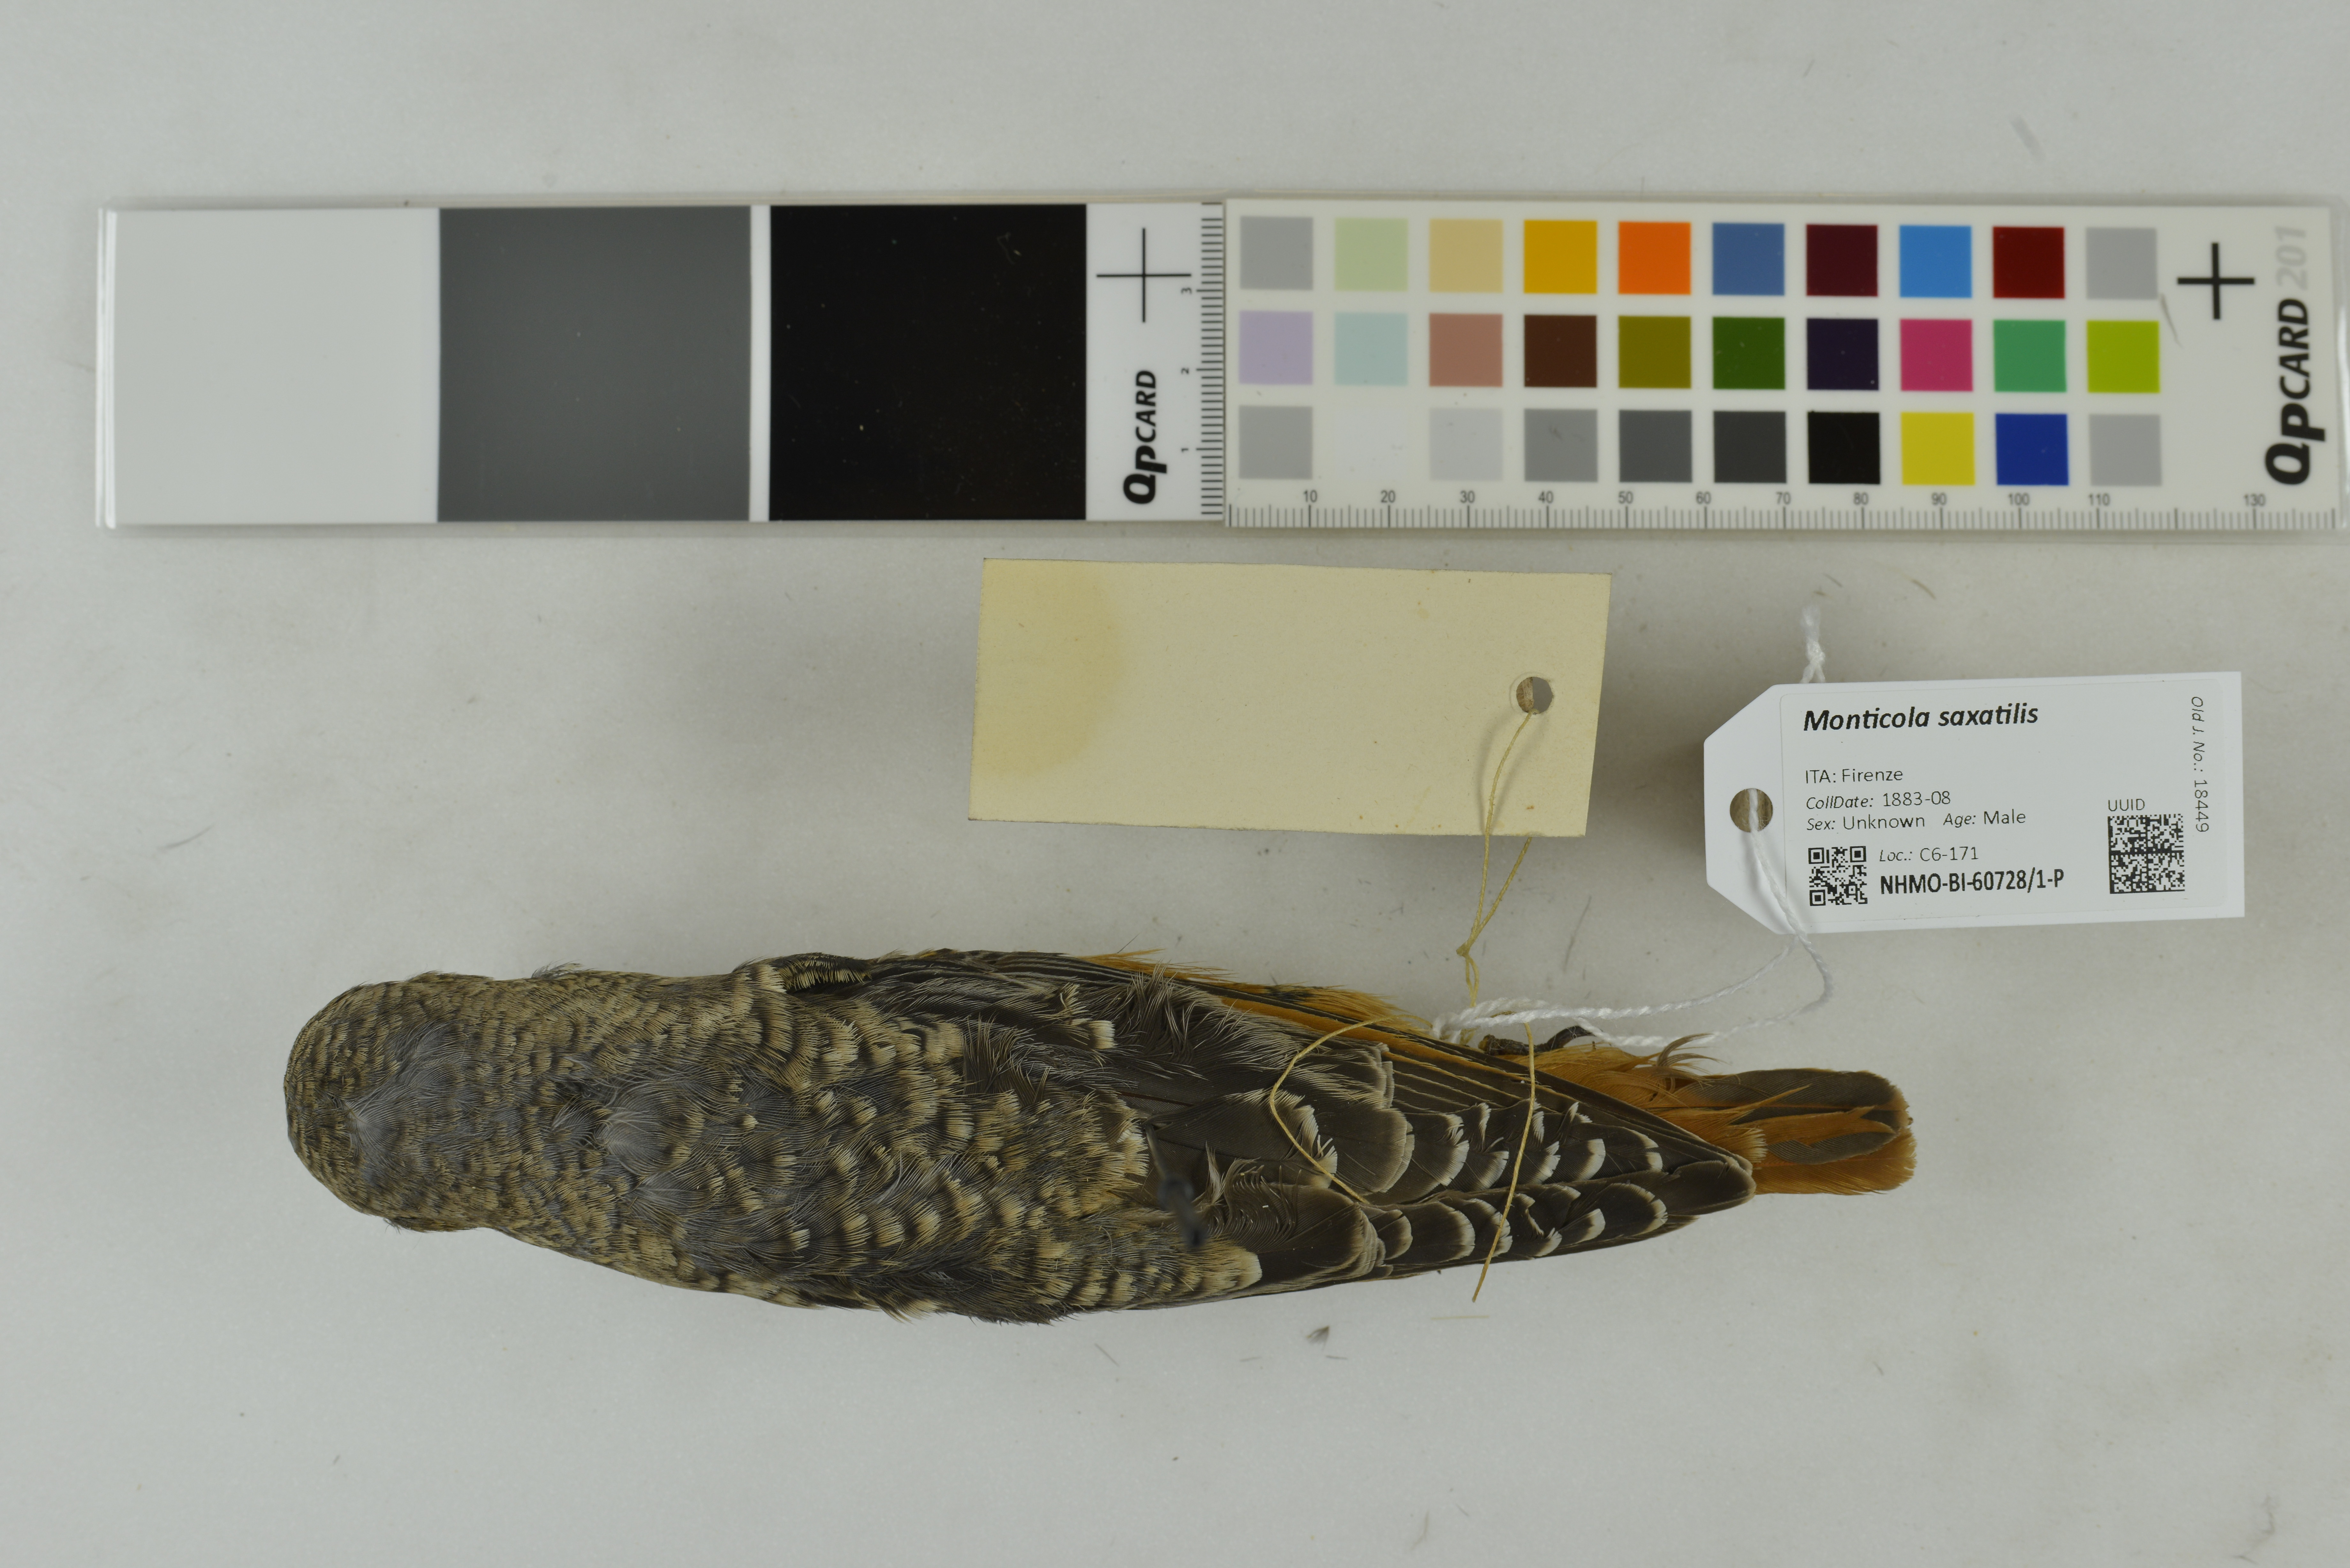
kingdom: Animalia
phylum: Chordata
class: Aves
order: Passeriformes
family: Muscicapidae
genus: Monticola
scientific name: Monticola saxatilis
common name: Rufous-tailed rock thrush
